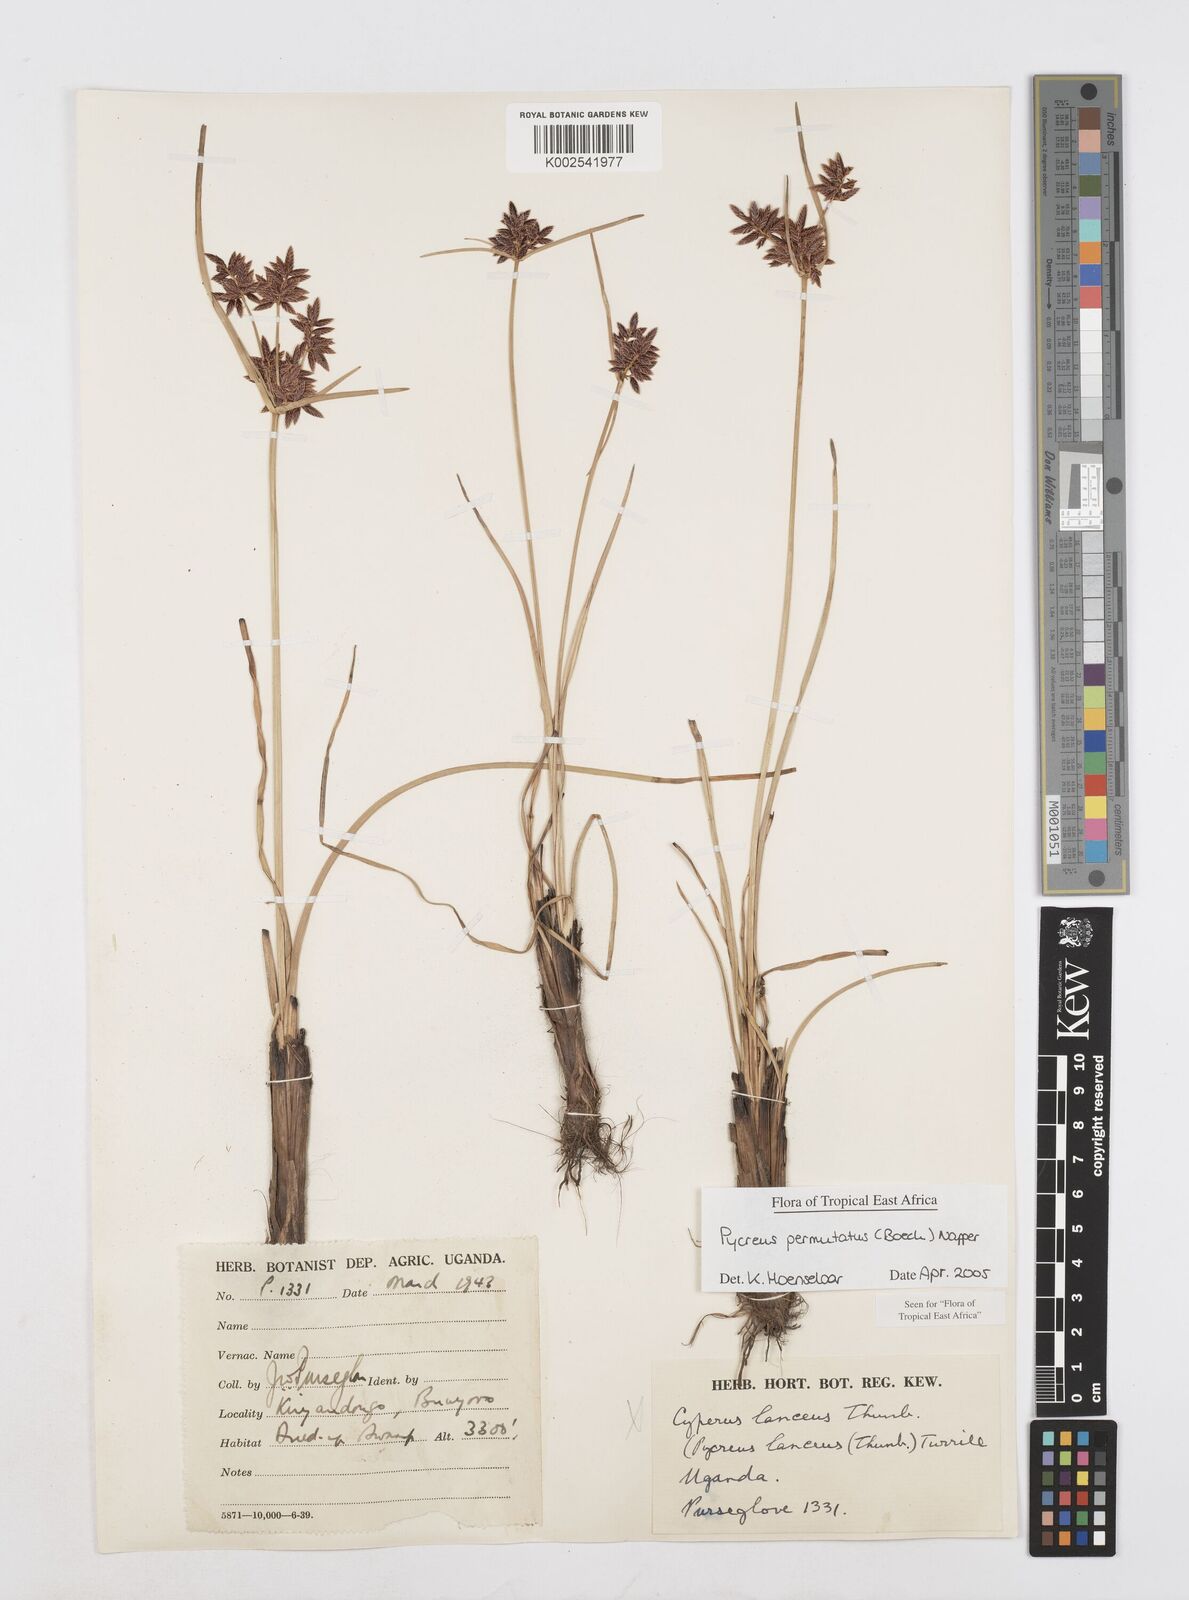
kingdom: Plantae
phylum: Tracheophyta
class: Liliopsida
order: Poales
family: Cyperaceae
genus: Cyperus
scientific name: Cyperus nigricans
